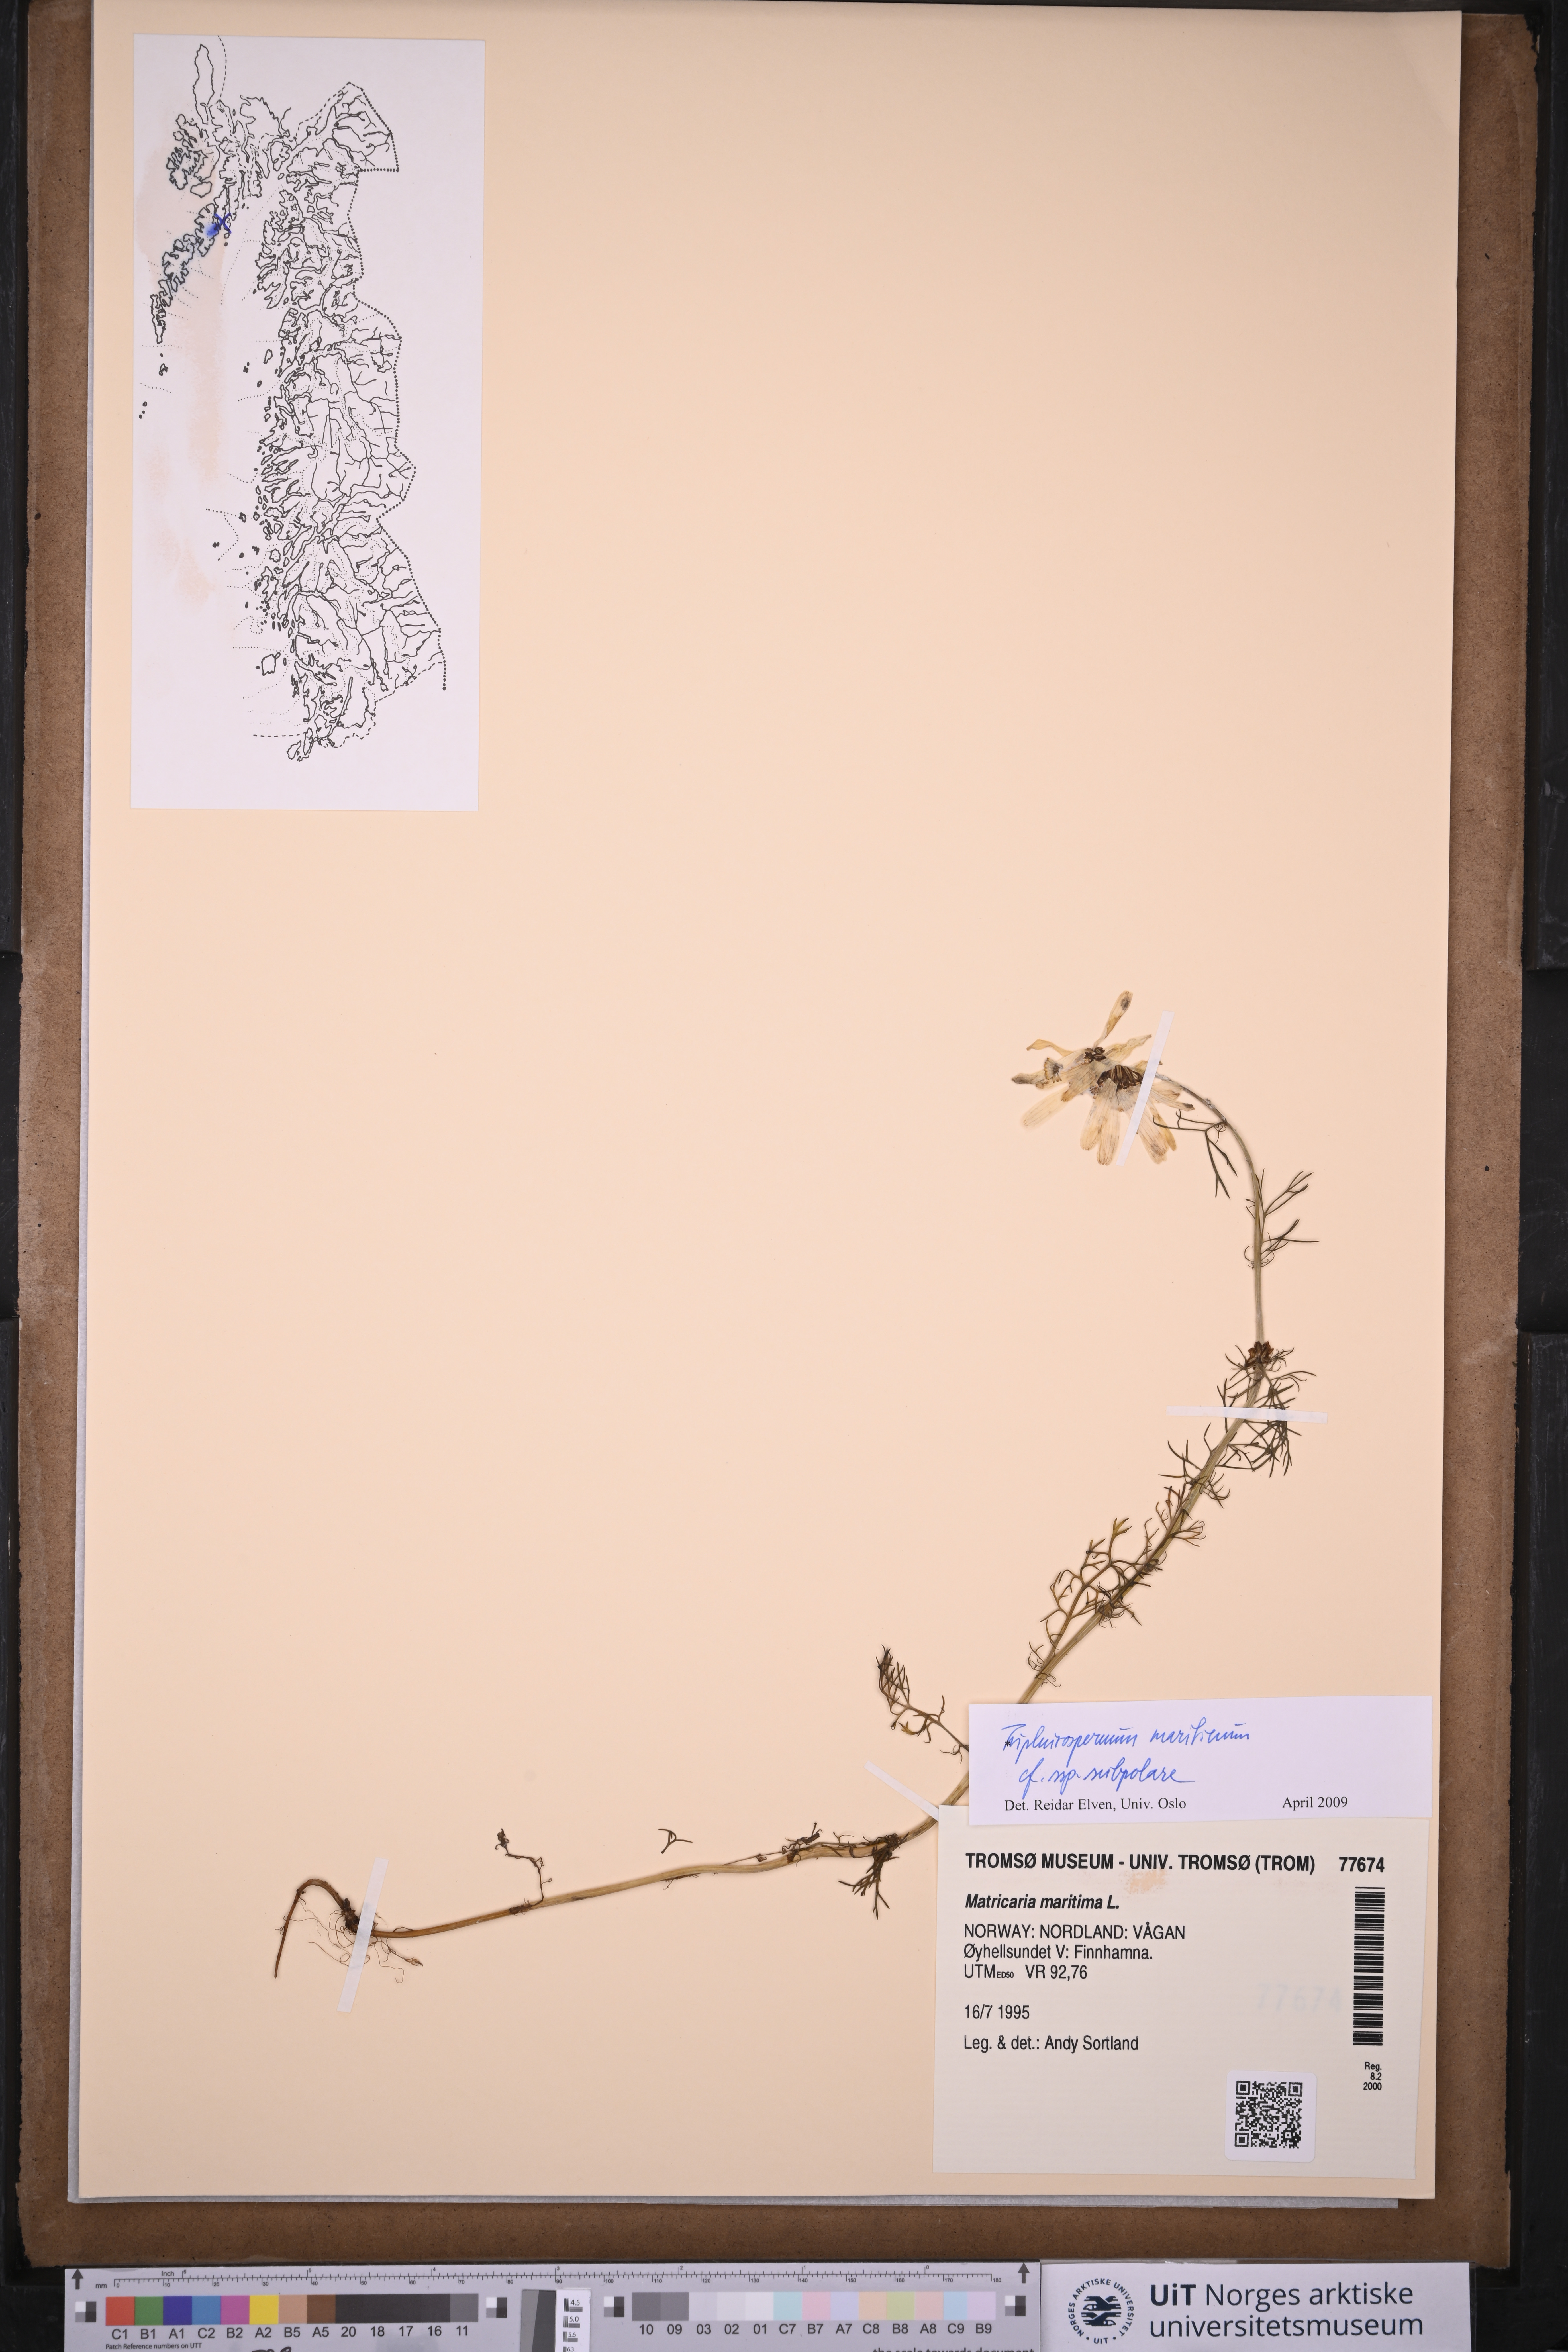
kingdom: Plantae
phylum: Tracheophyta
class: Magnoliopsida
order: Asterales
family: Asteraceae
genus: Tripleurospermum
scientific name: Tripleurospermum subpolare
